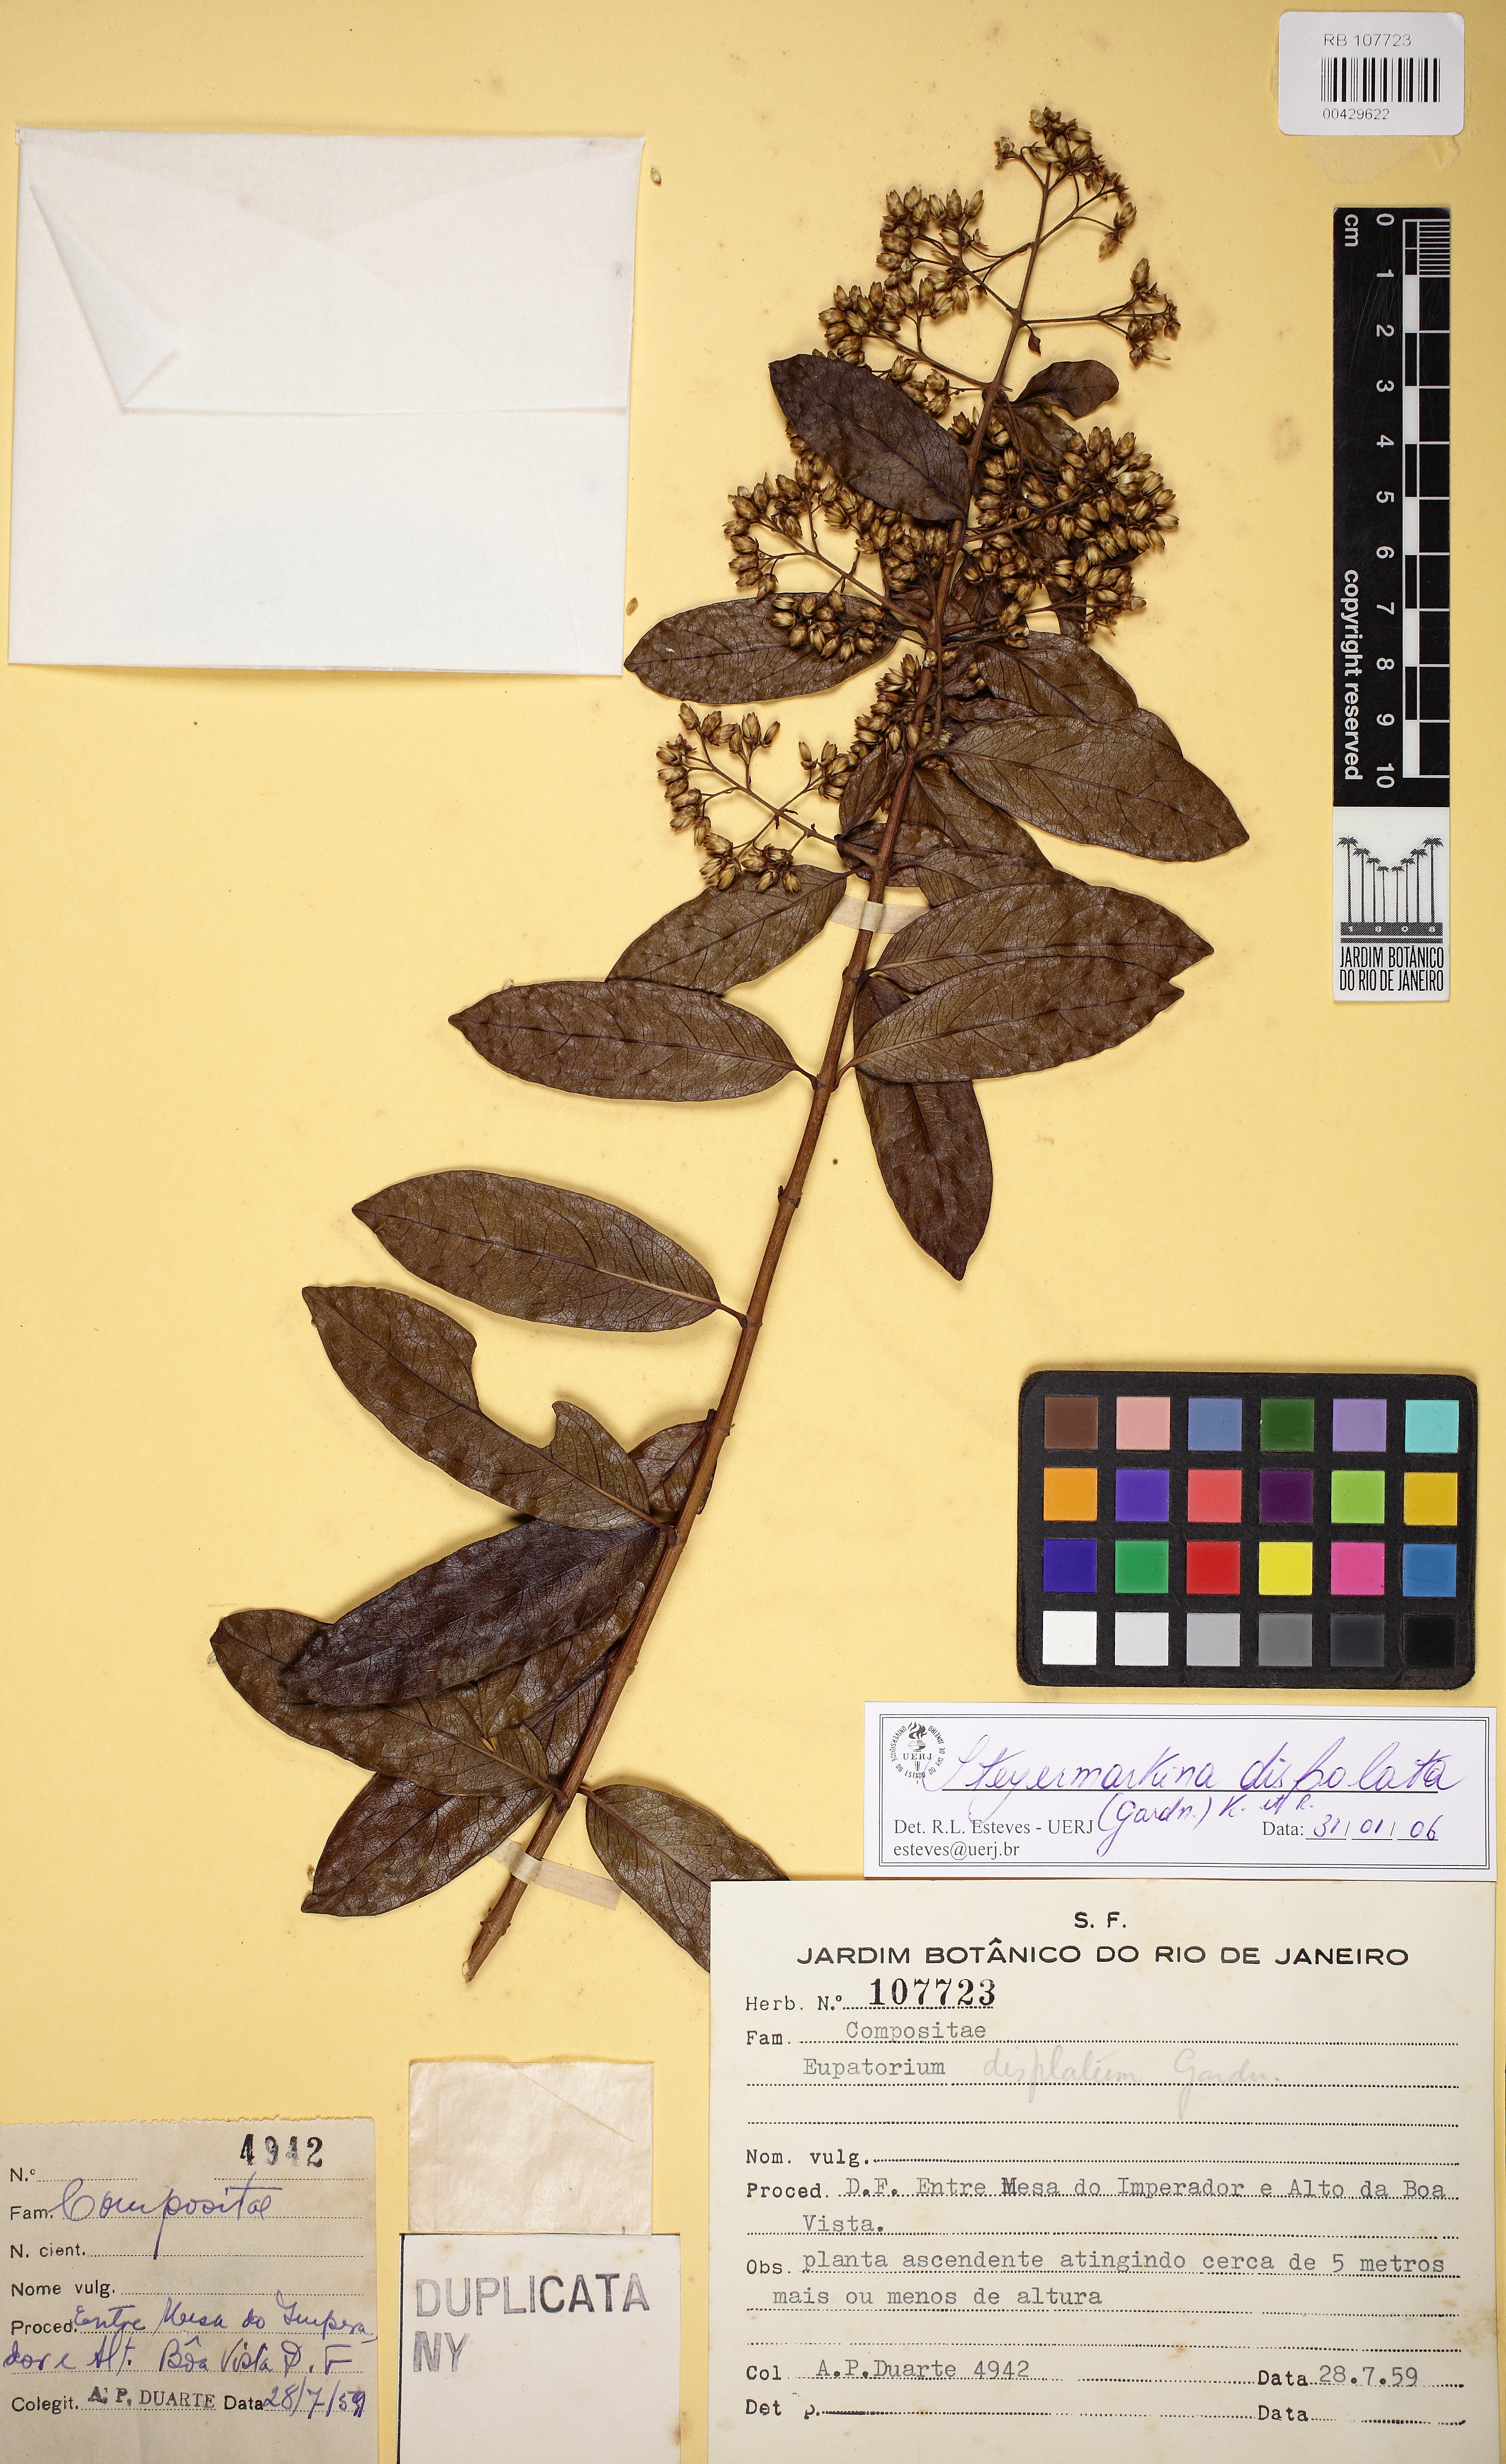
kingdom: Plantae
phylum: Tracheophyta
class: Magnoliopsida
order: Asterales
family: Asteraceae
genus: Steyermarkina
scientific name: Steyermarkina dispalata
